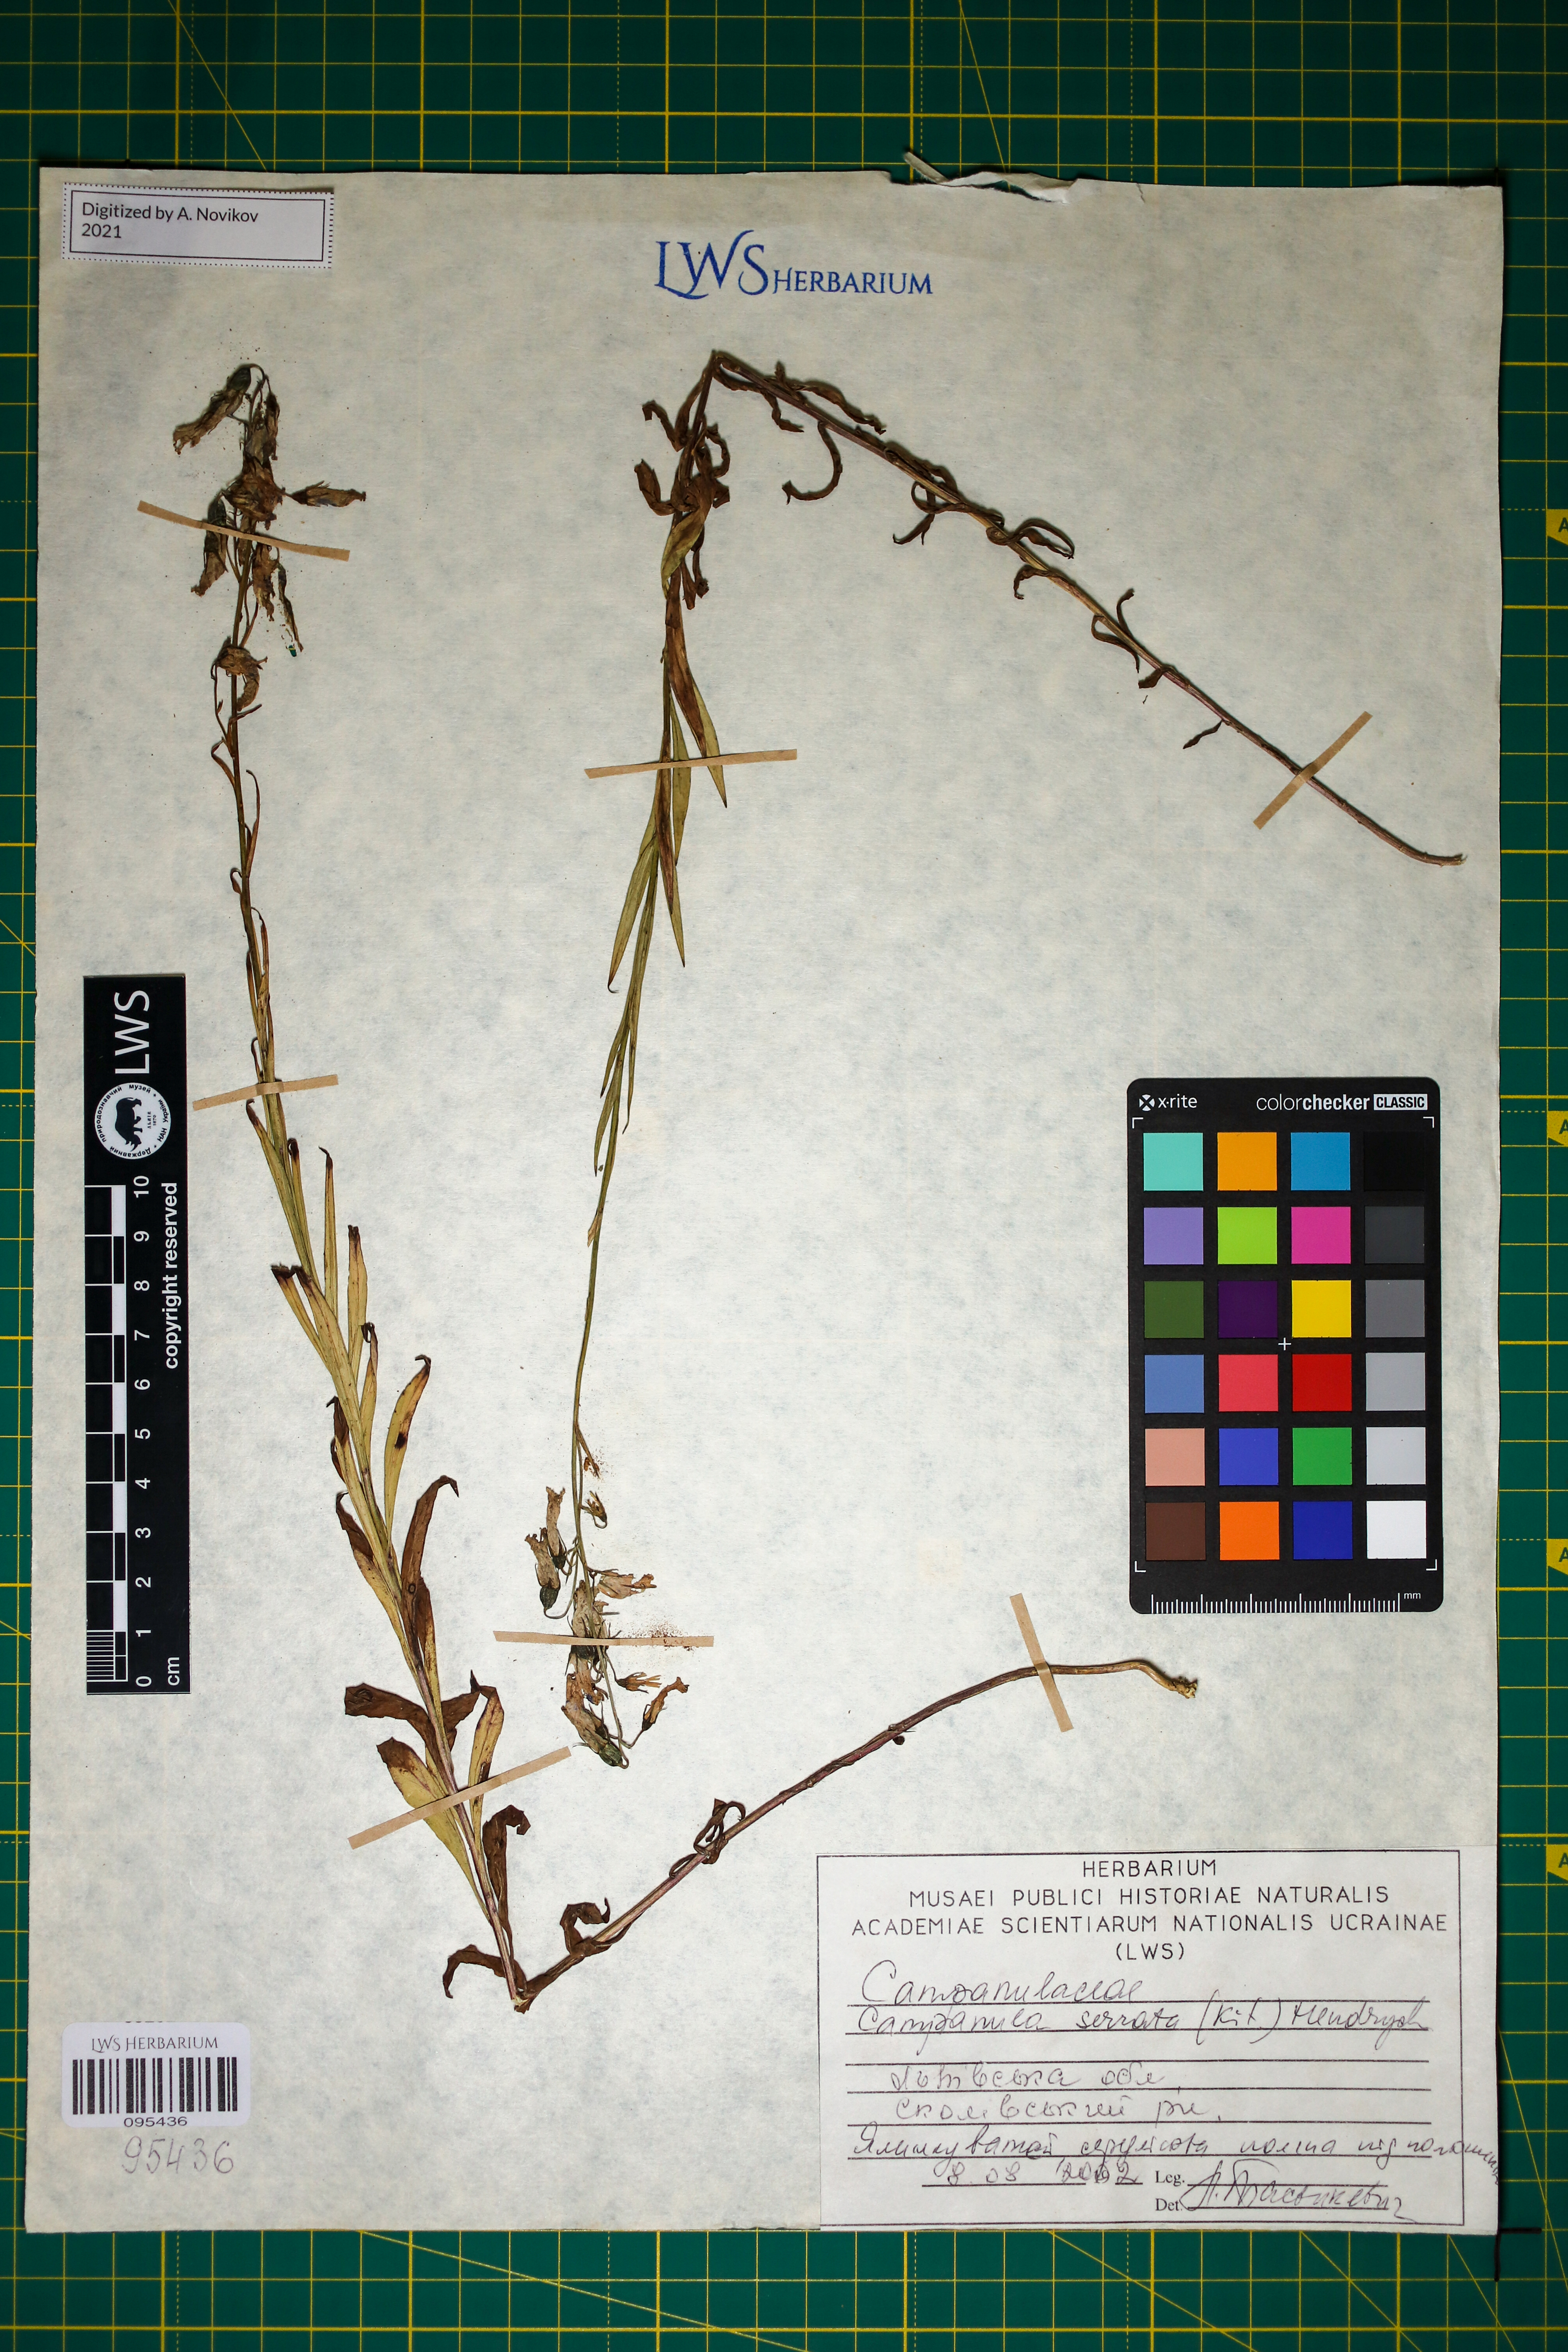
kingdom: Plantae
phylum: Tracheophyta
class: Magnoliopsida
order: Asterales
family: Campanulaceae
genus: Campanula
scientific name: Campanula serrata
